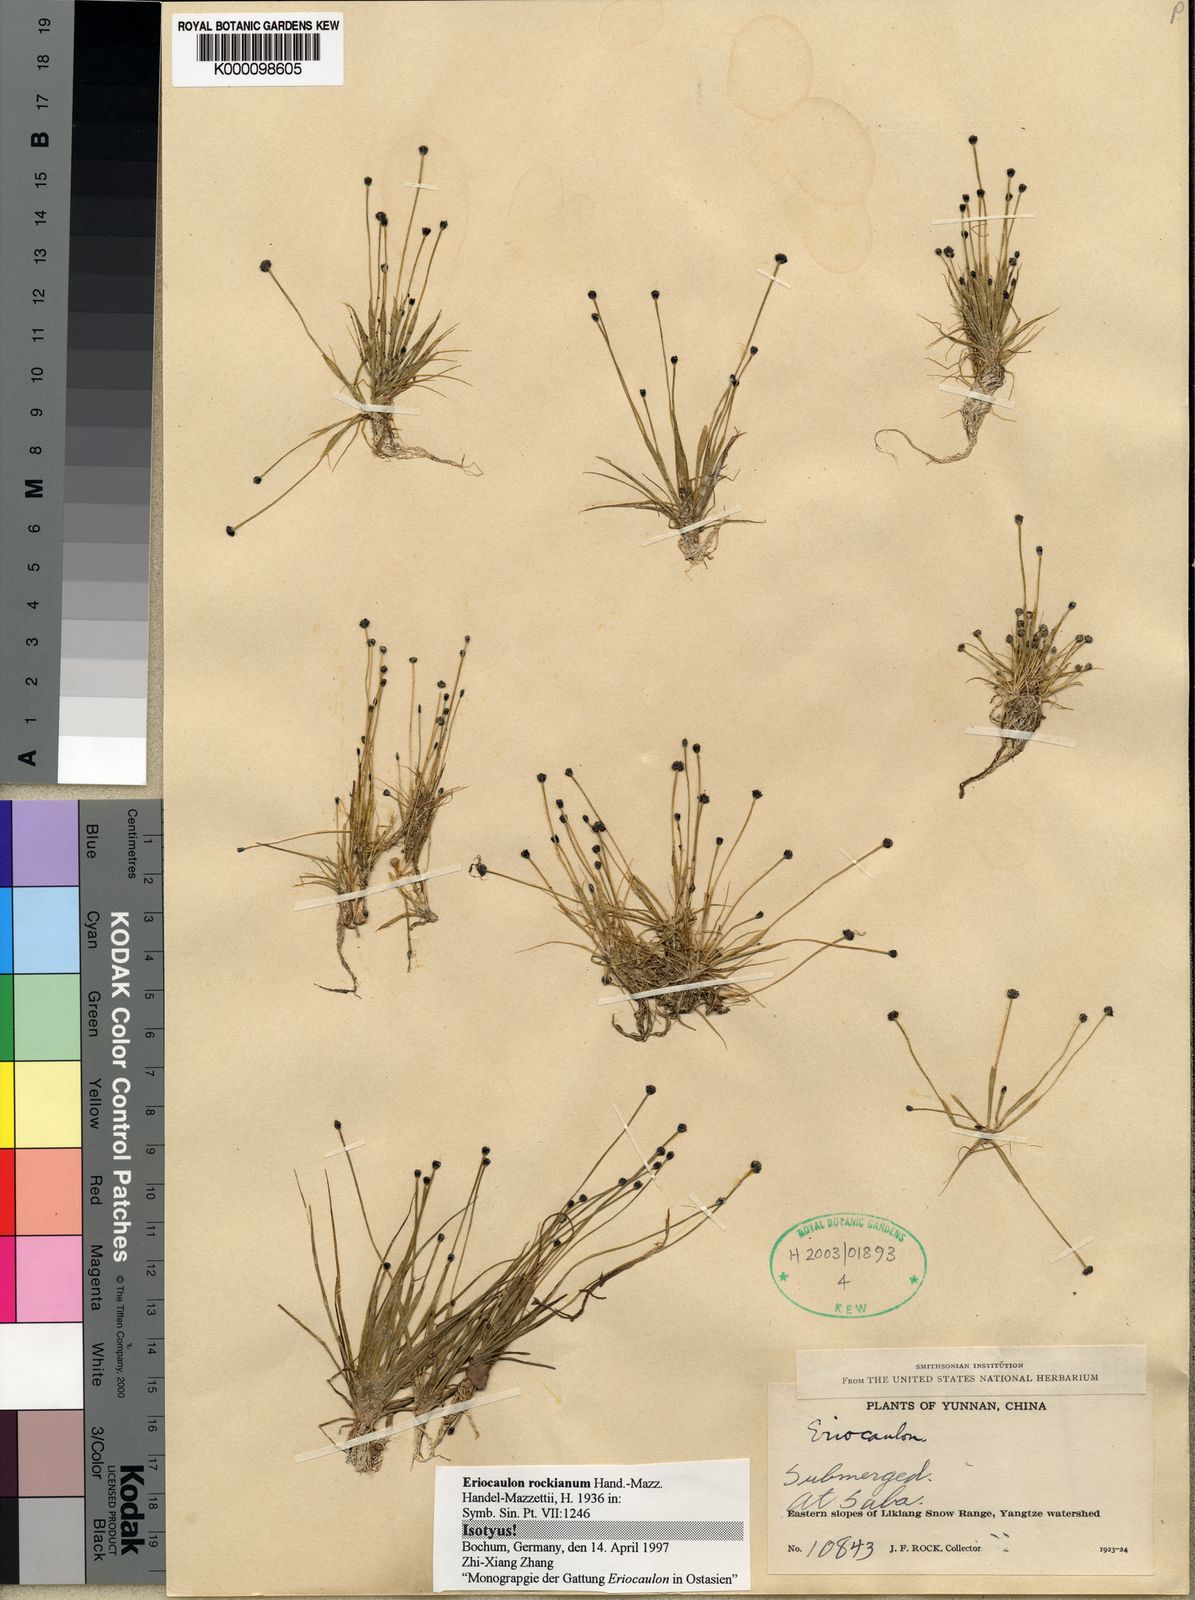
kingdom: Plantae
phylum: Tracheophyta
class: Liliopsida
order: Poales
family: Eriocaulaceae
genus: Eriocaulon
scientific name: Eriocaulon rockianum
